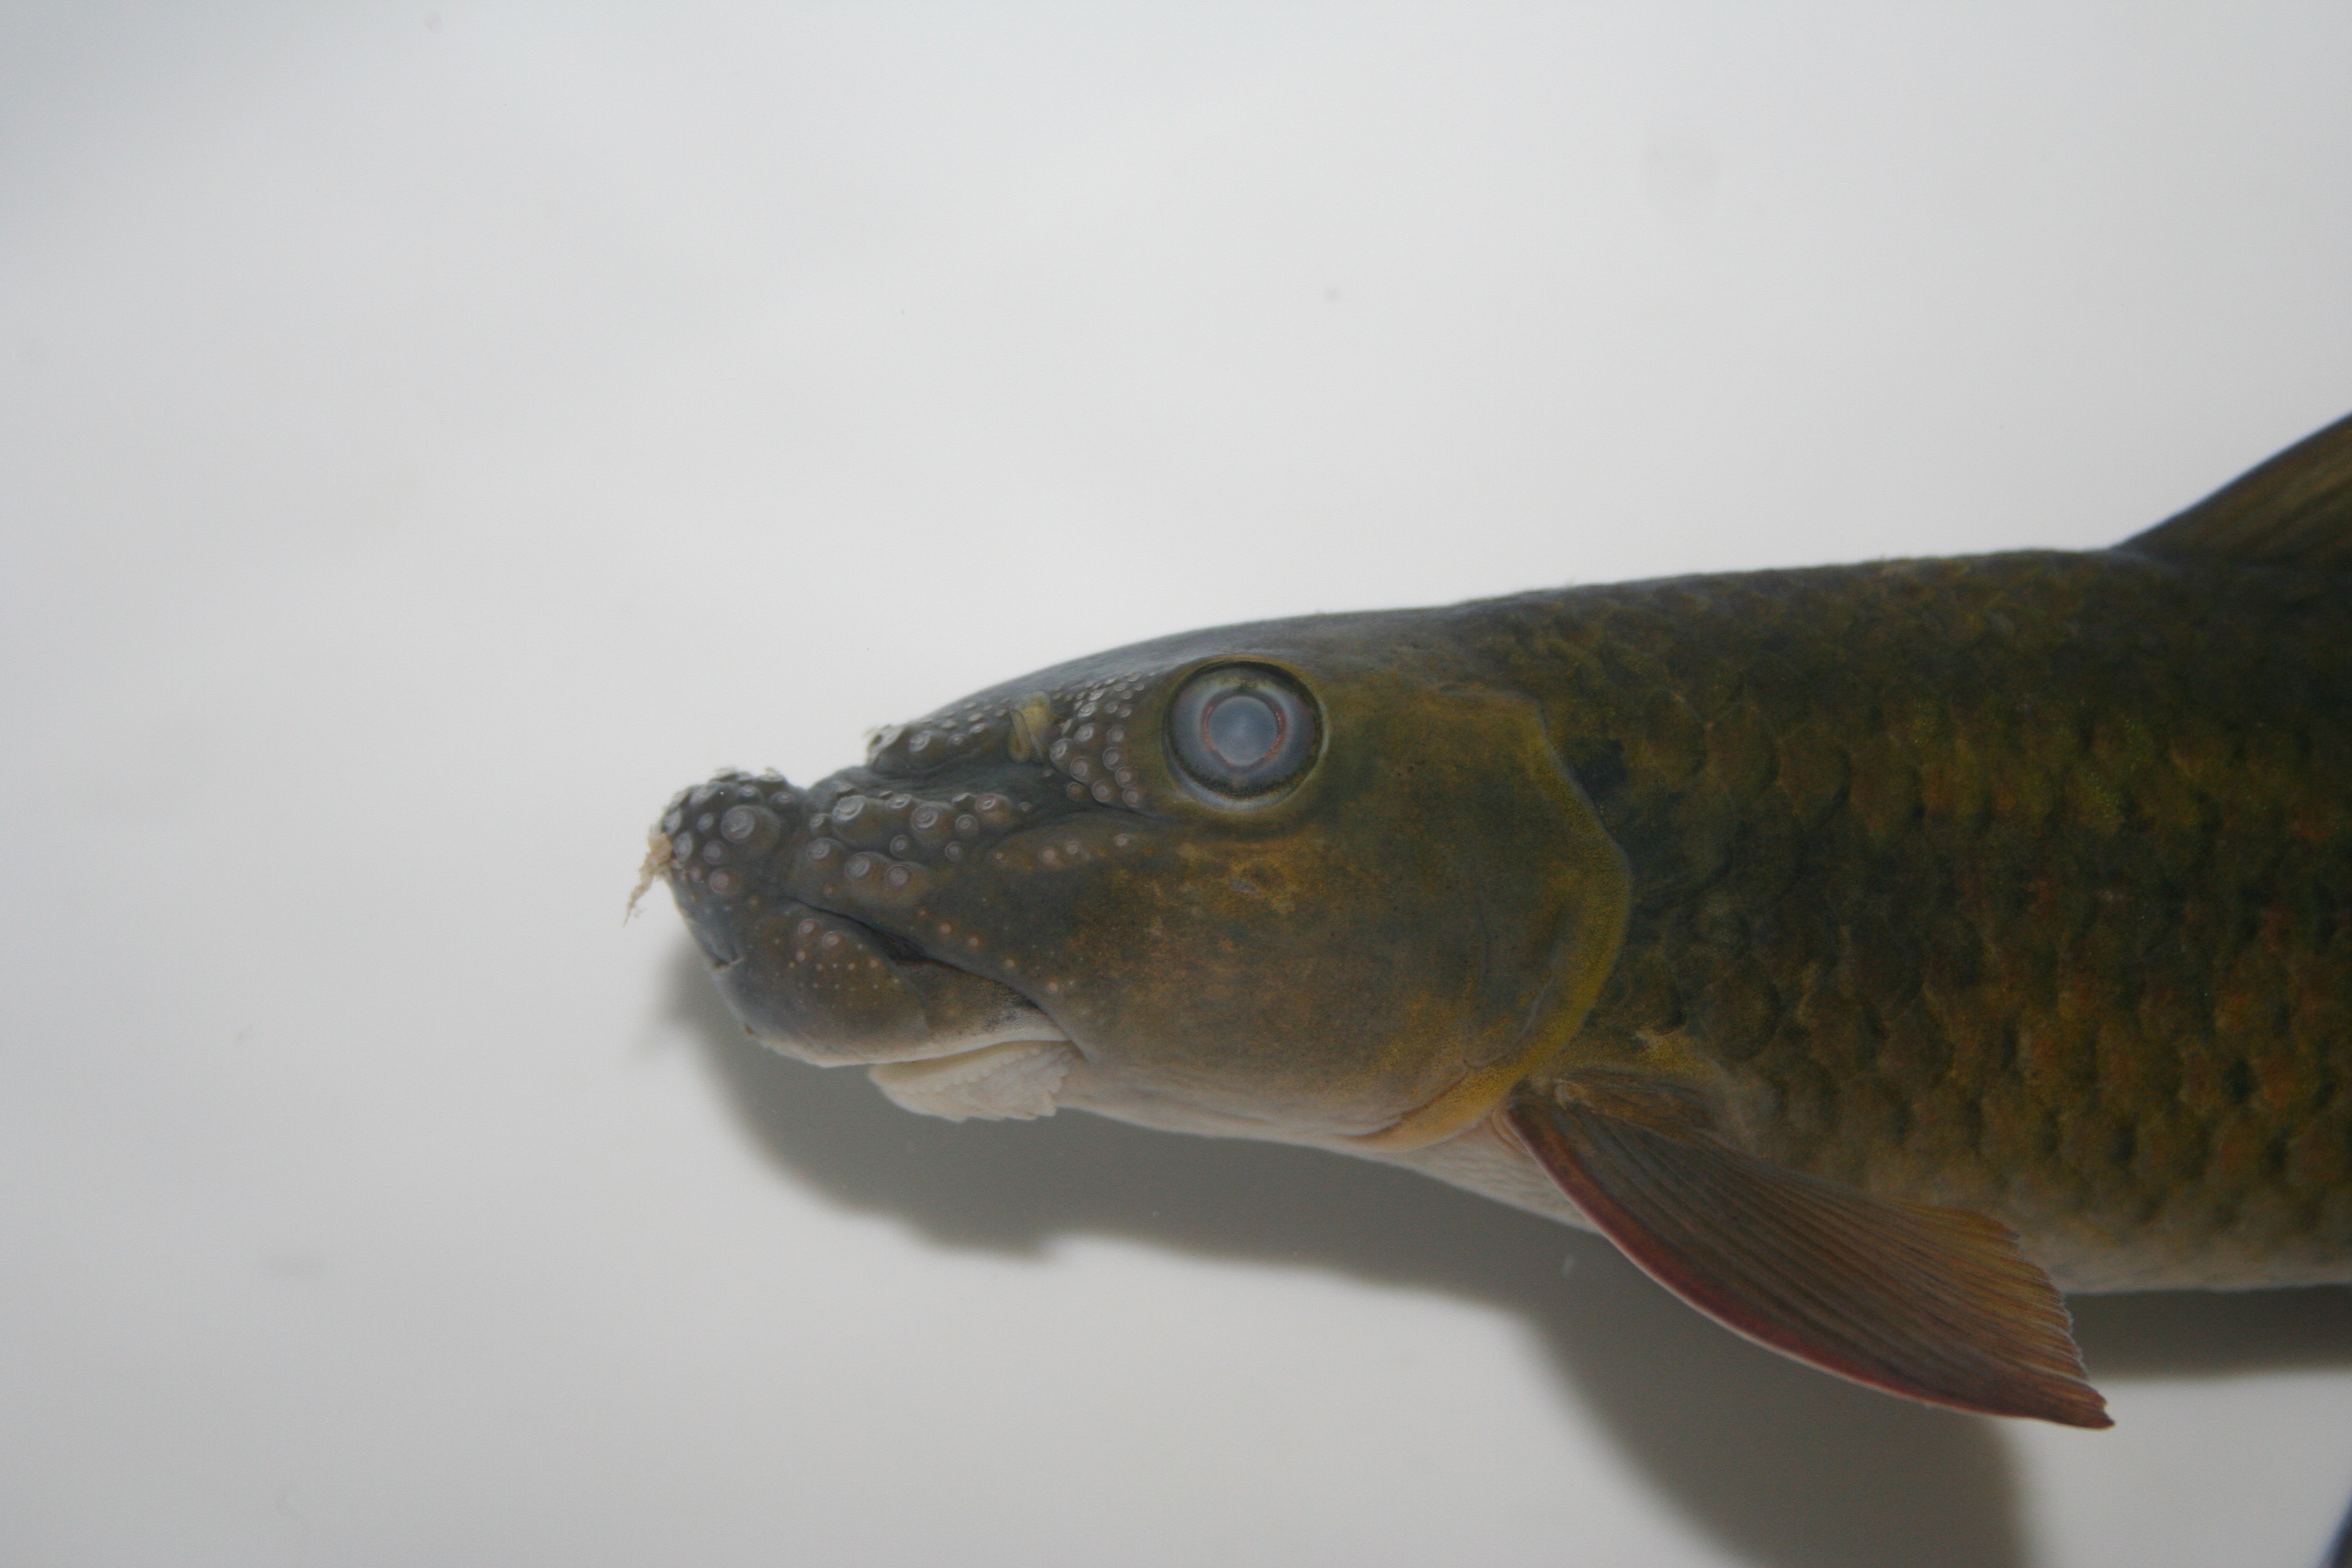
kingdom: Animalia
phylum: Chordata
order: Cypriniformes
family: Cyprinidae
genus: Labeo
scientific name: Labeo annectens
